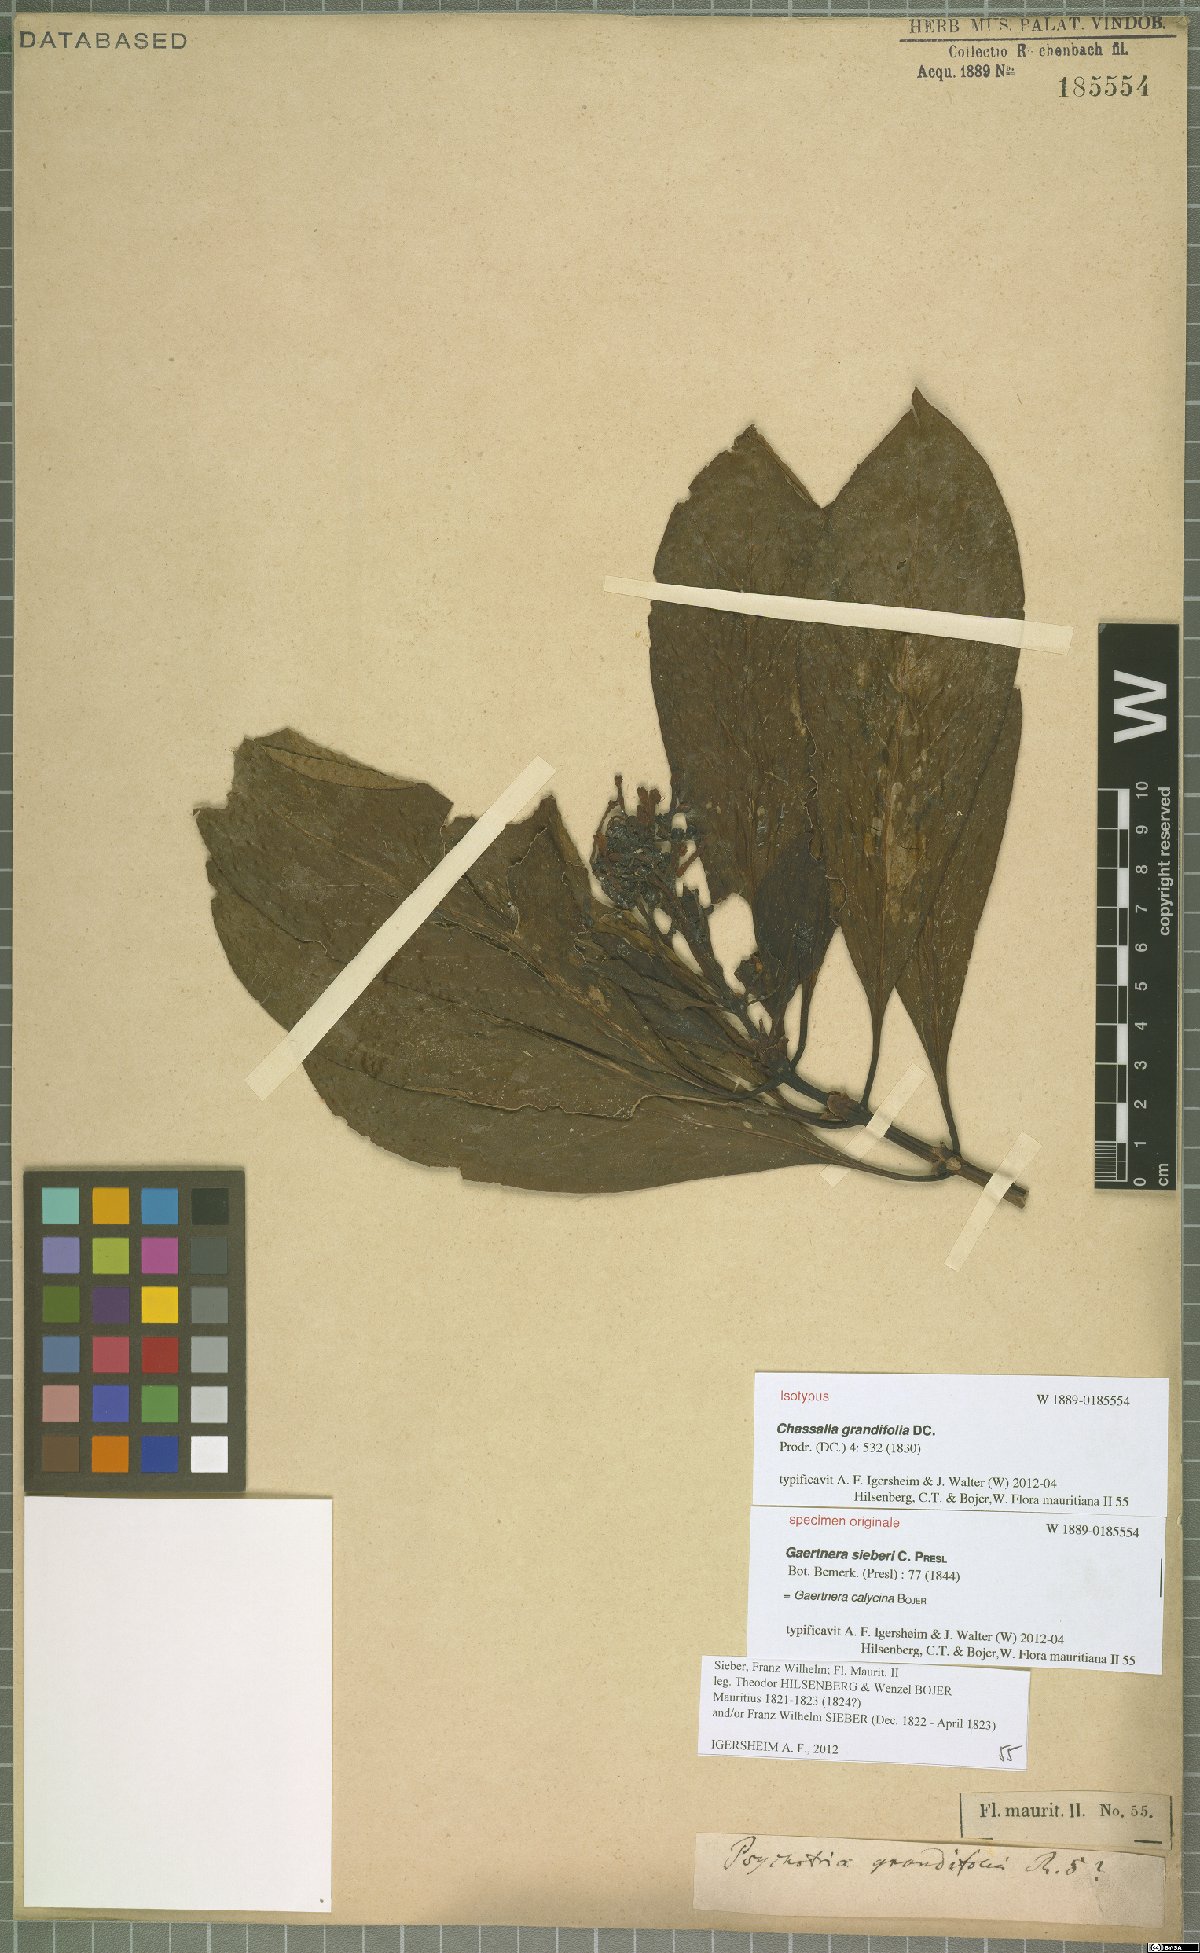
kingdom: Plantae
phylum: Tracheophyta
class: Magnoliopsida
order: Gentianales
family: Rubiaceae
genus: Chassalia
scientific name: Chassalia grandifolia
